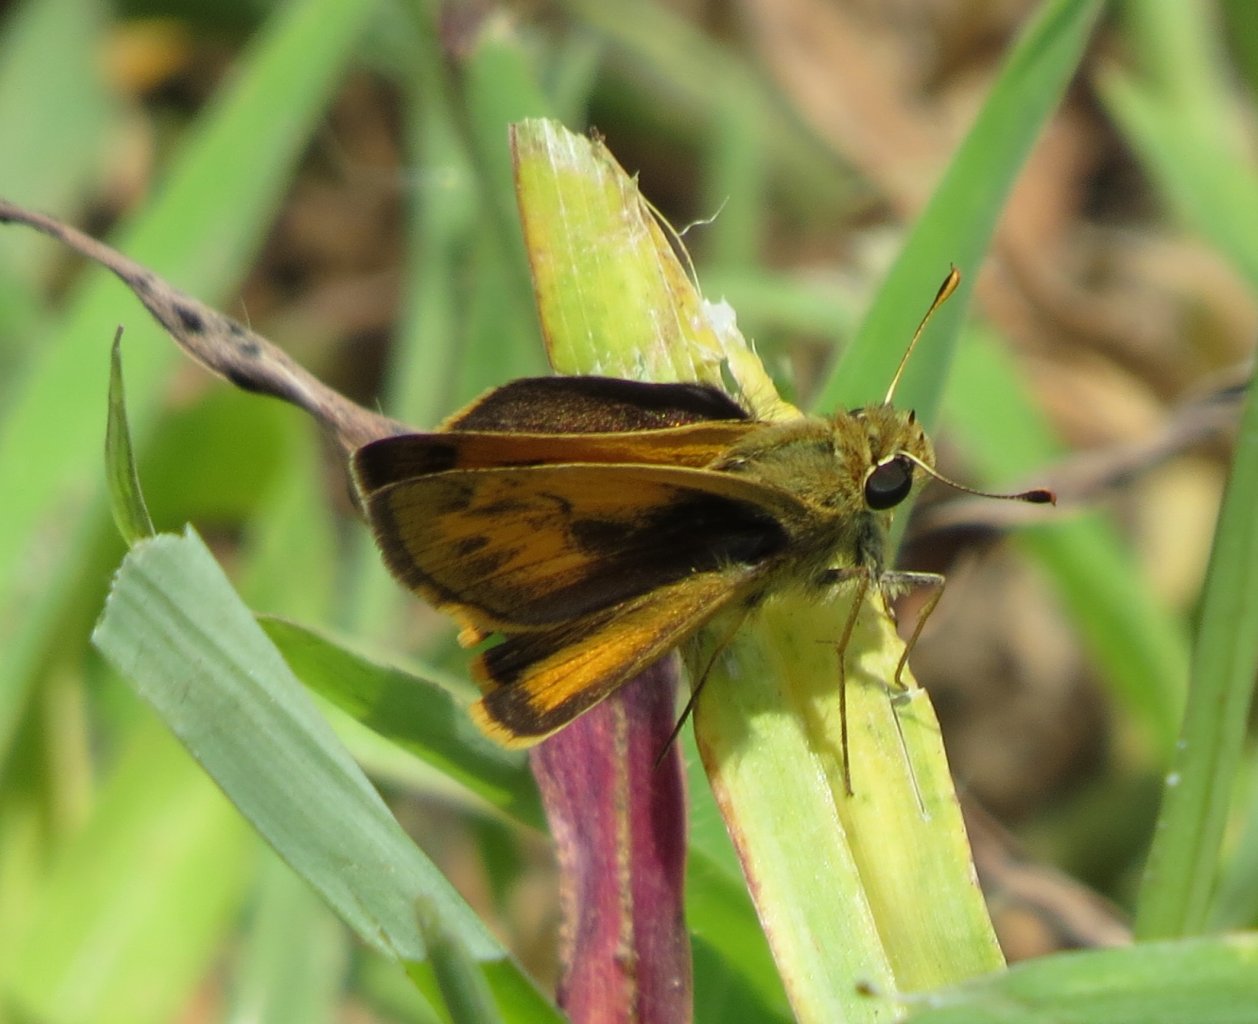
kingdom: Animalia
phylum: Arthropoda
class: Insecta
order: Lepidoptera
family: Hesperiidae
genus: Polites
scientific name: Polites vibex
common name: Whirlabout
